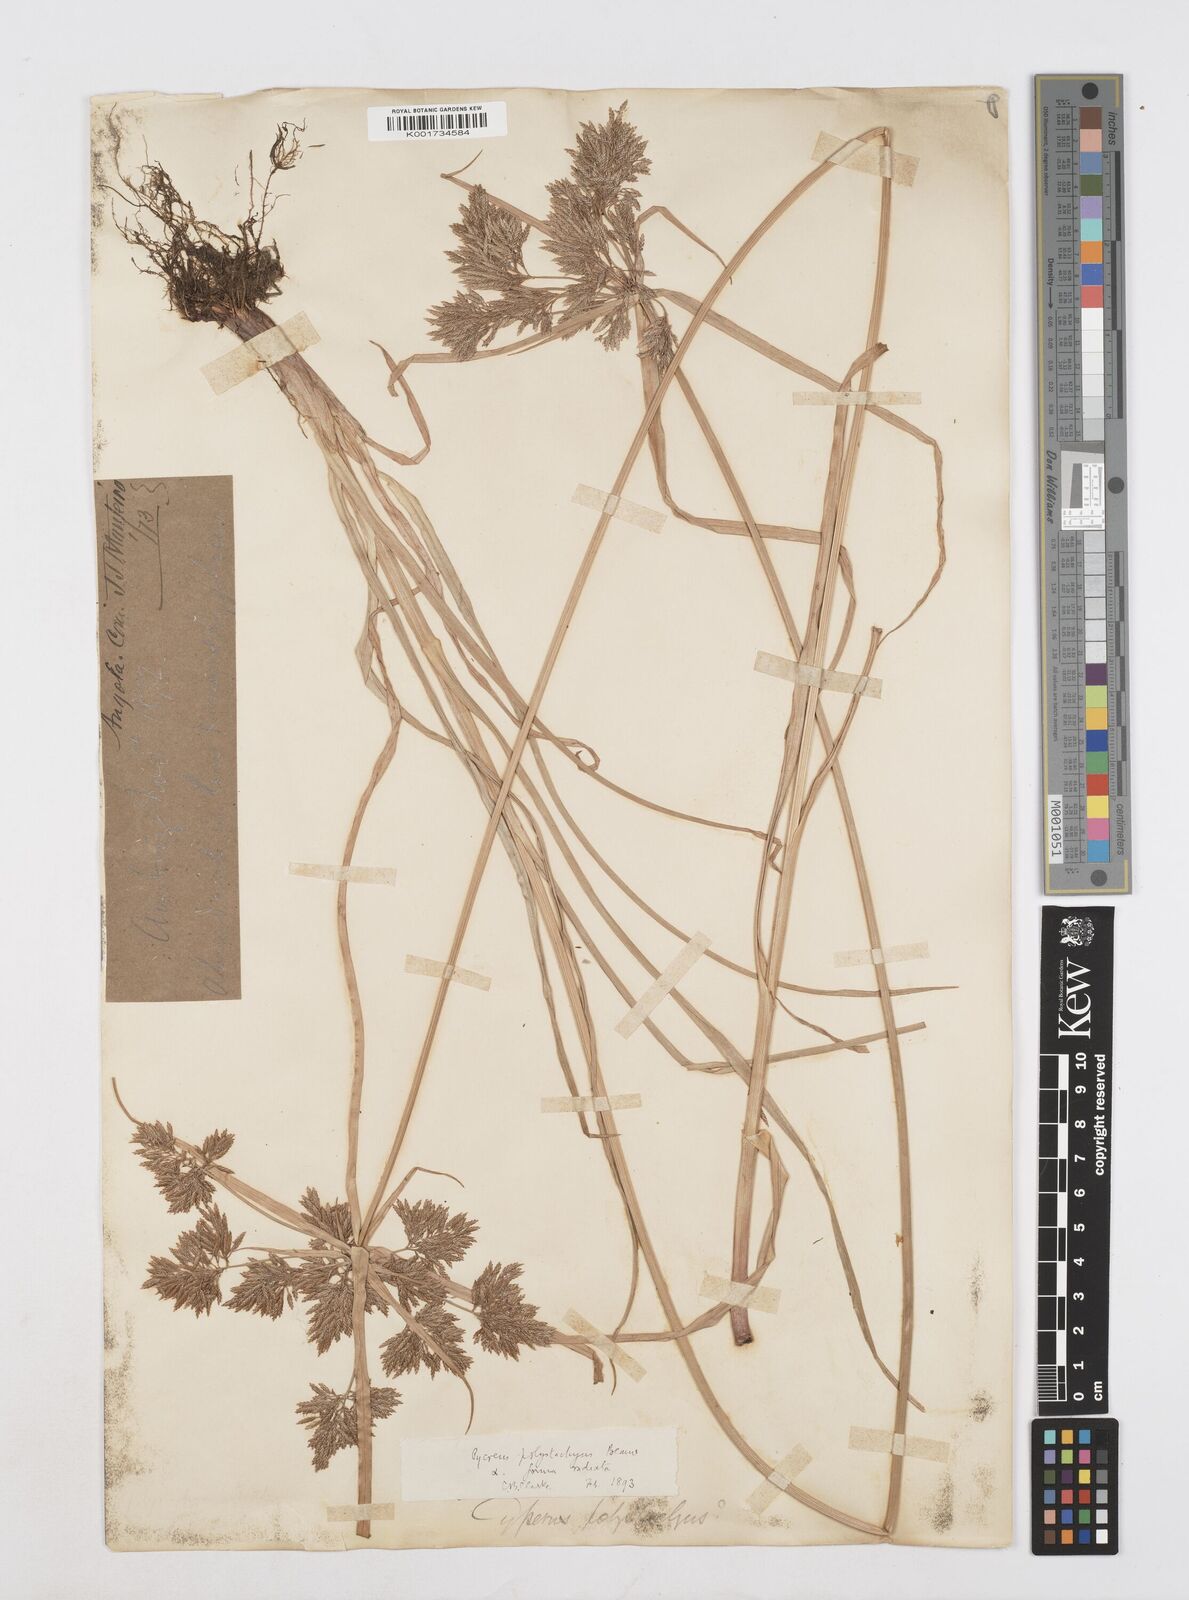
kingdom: Plantae
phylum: Tracheophyta
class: Liliopsida
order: Poales
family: Cyperaceae
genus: Cyperus
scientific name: Cyperus polystachyos
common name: Bunchy flat sedge
